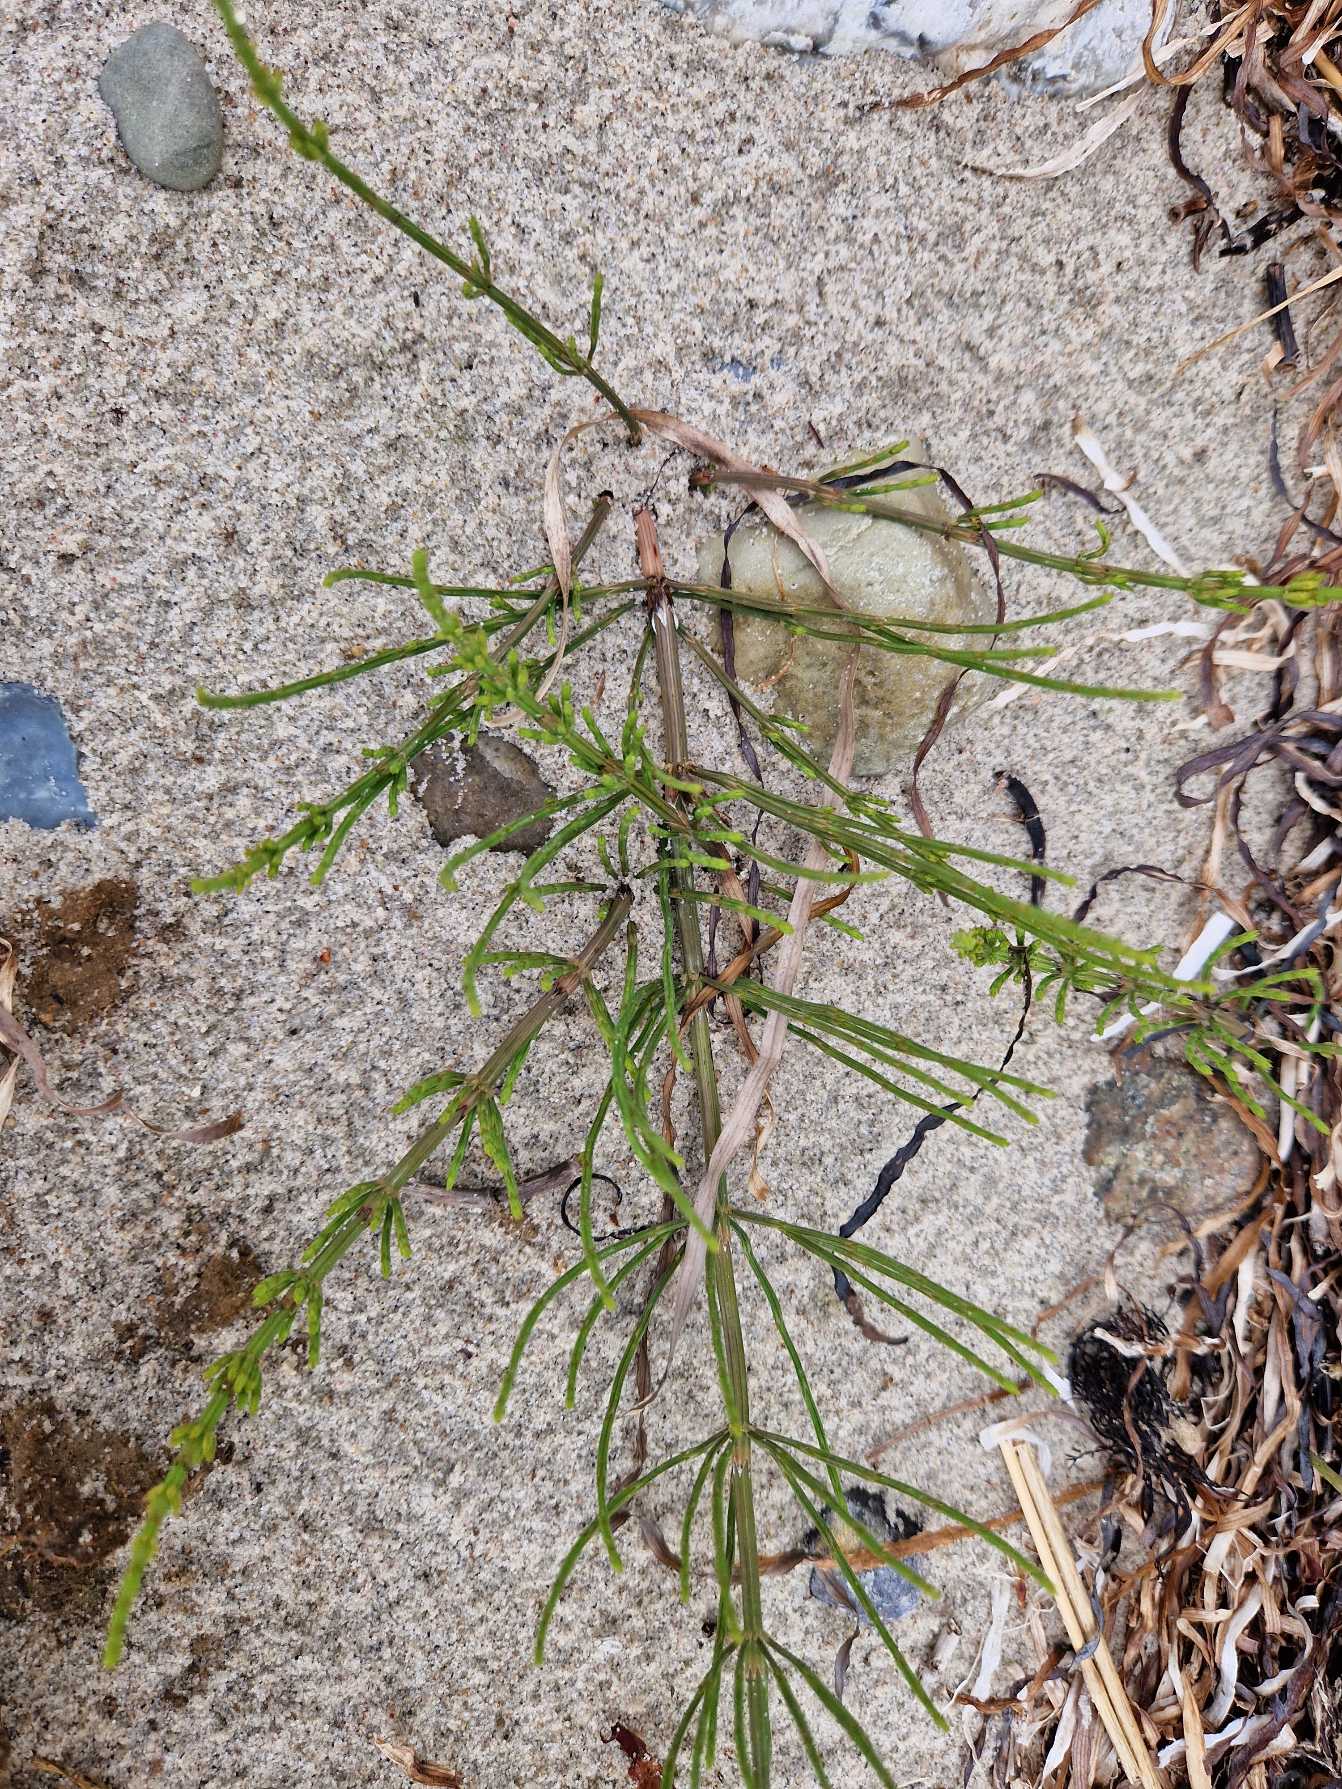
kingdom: Plantae
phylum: Tracheophyta
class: Polypodiopsida
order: Equisetales
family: Equisetaceae
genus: Equisetum
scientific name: Equisetum arvense
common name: Ager-padderok
